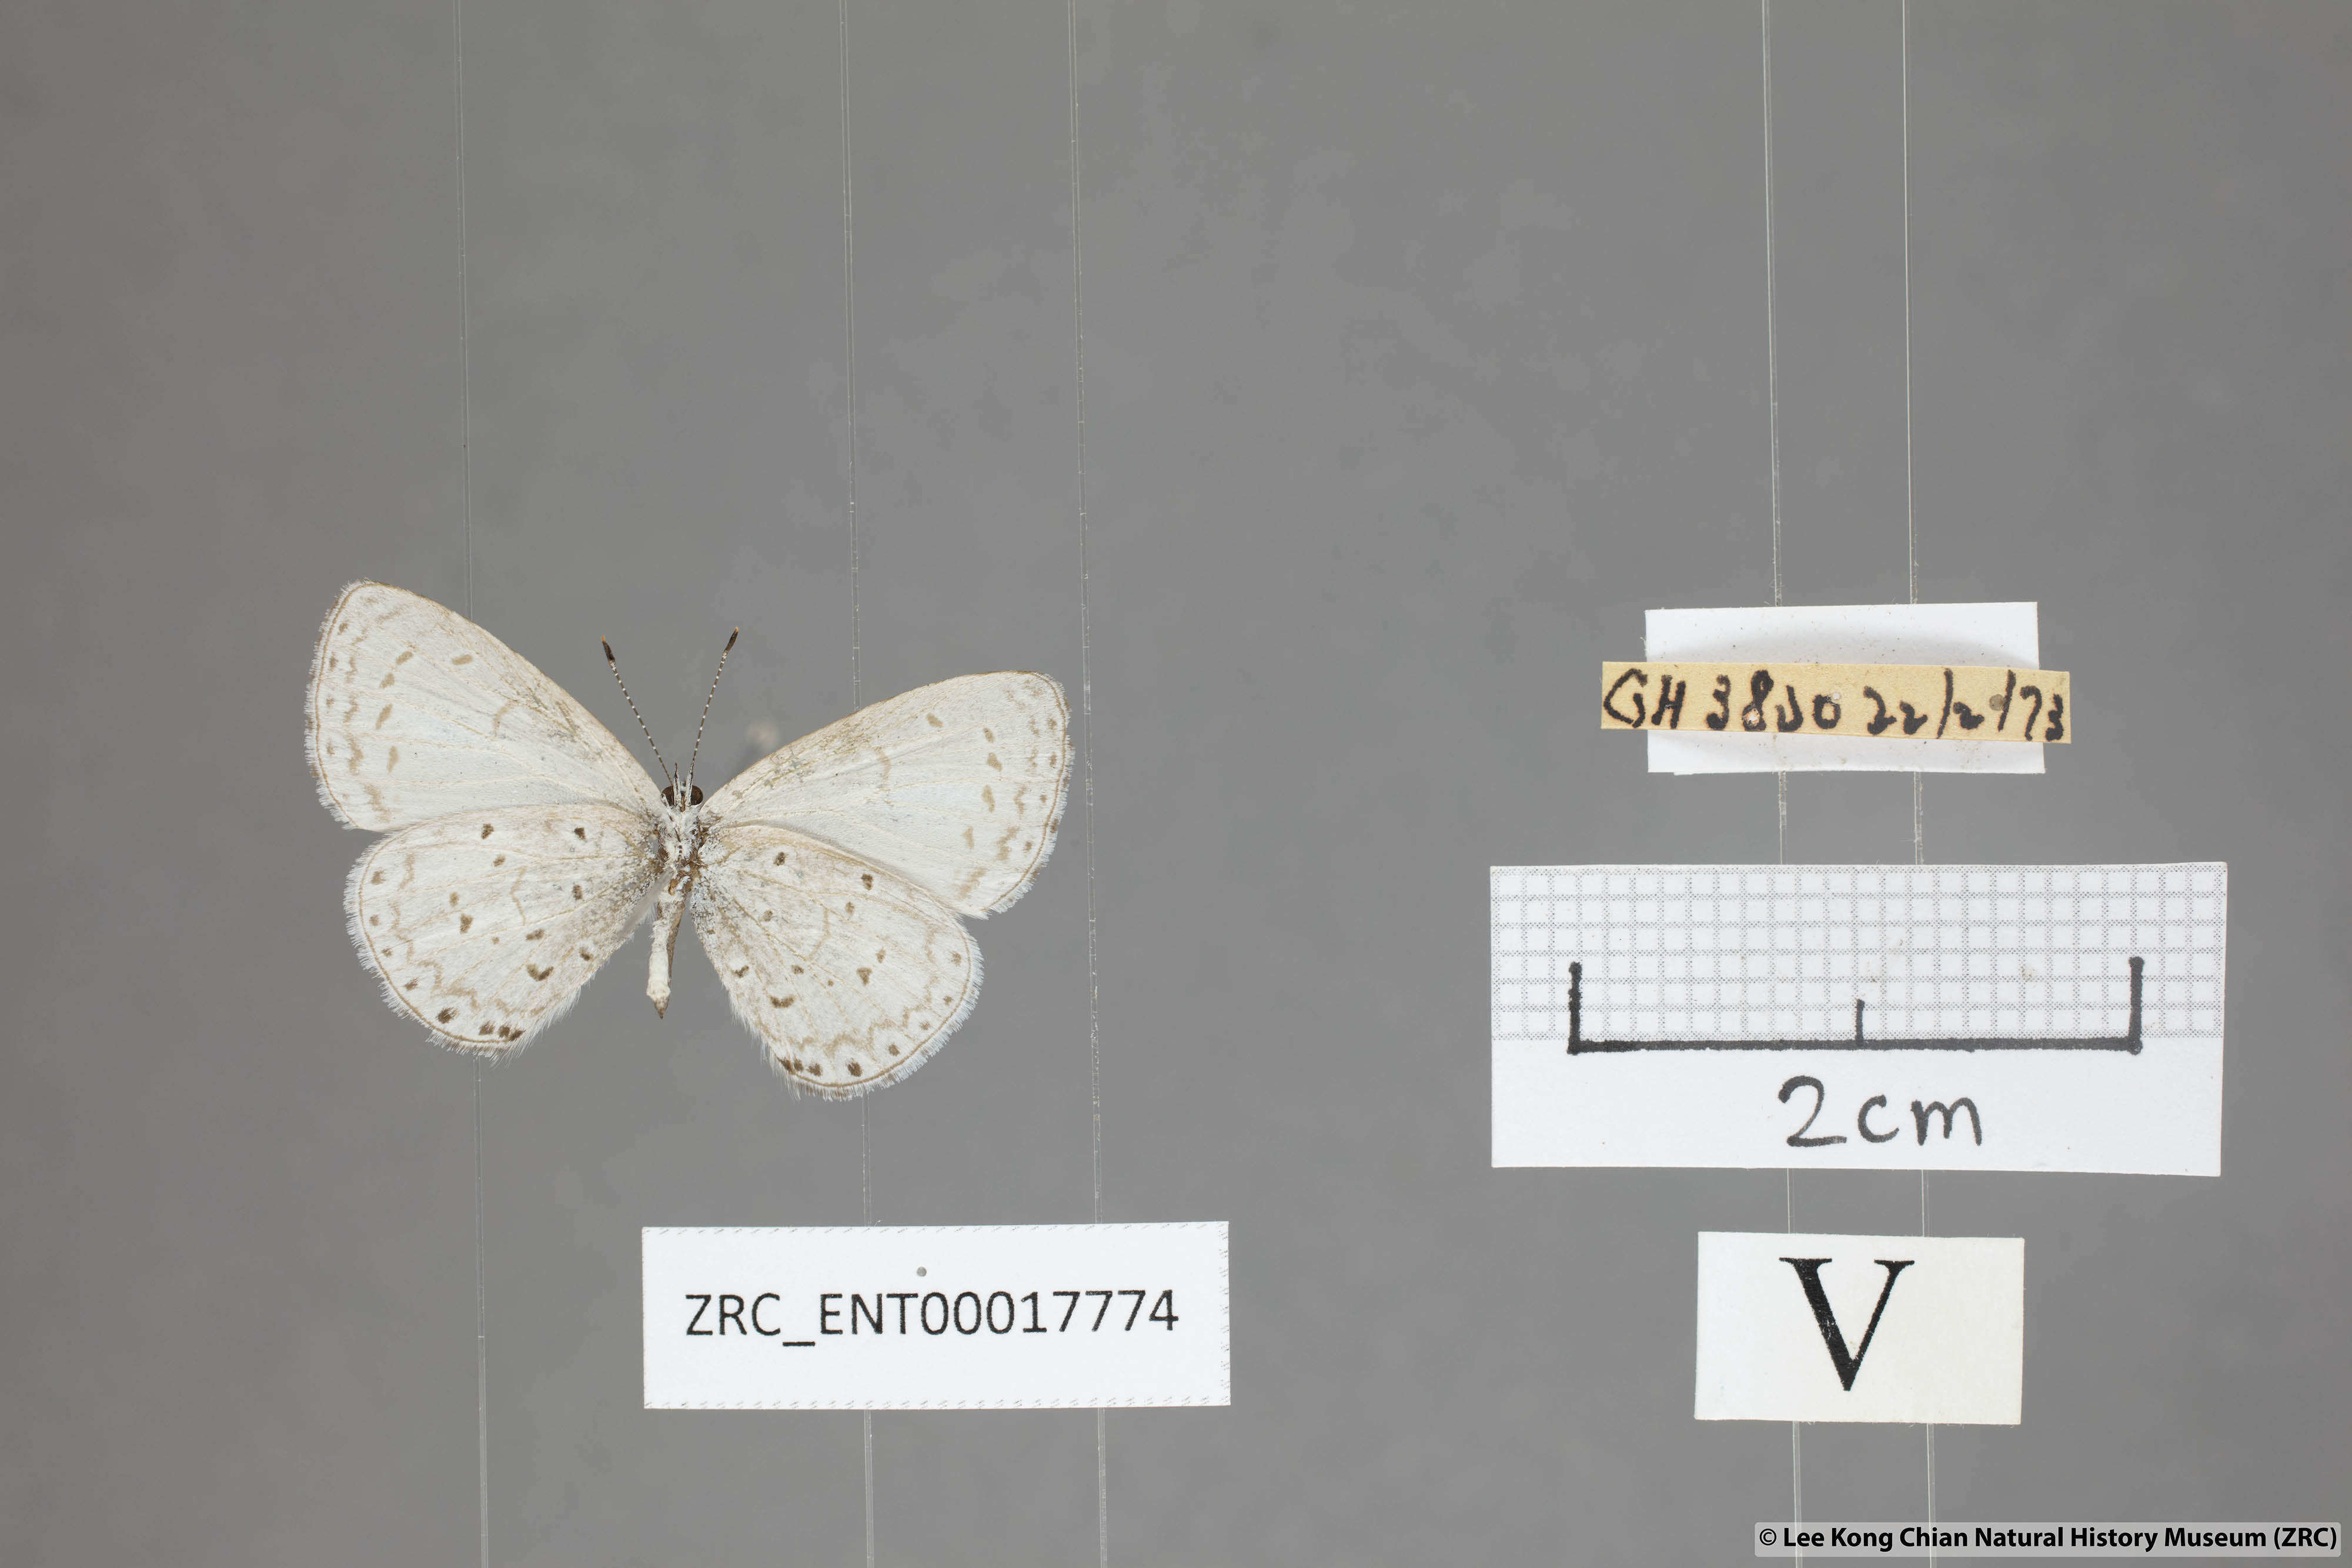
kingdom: Animalia
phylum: Arthropoda
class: Insecta
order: Lepidoptera
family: Lycaenidae
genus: Udara
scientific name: Udara dilectus
